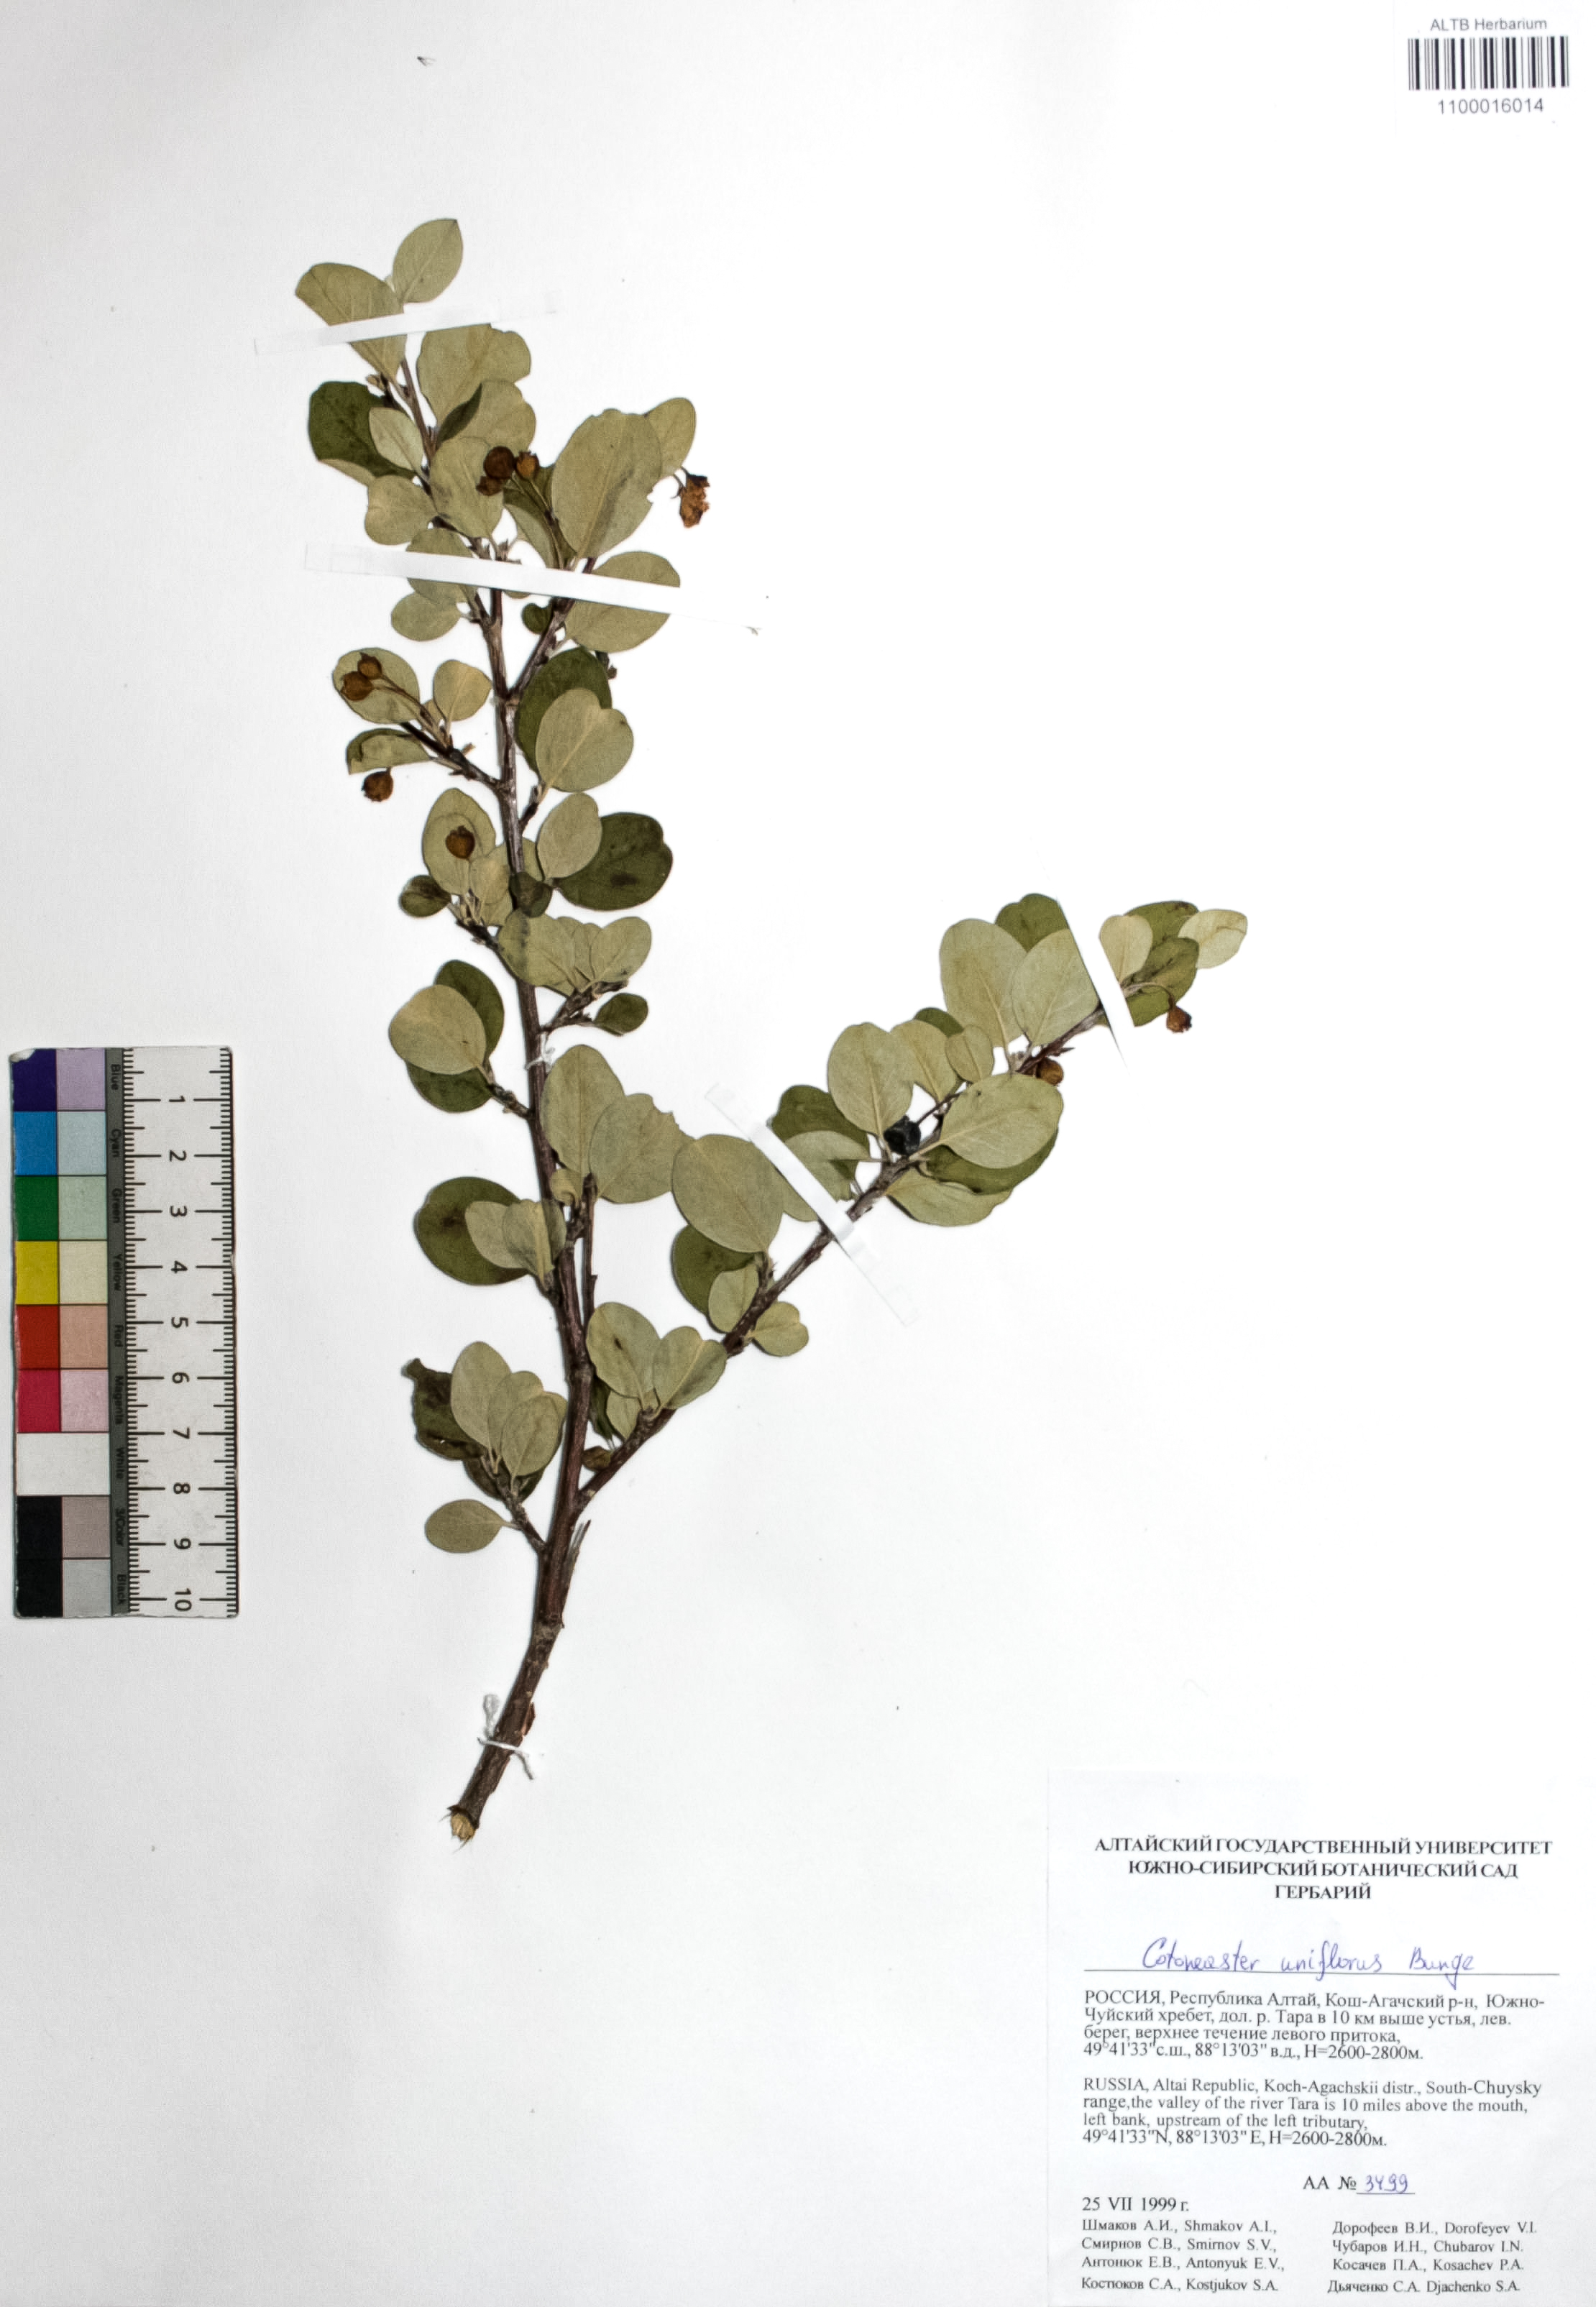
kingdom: Plantae
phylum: Tracheophyta
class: Magnoliopsida
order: Rosales
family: Rosaceae
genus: Cotoneaster
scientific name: Cotoneaster uniflorus
